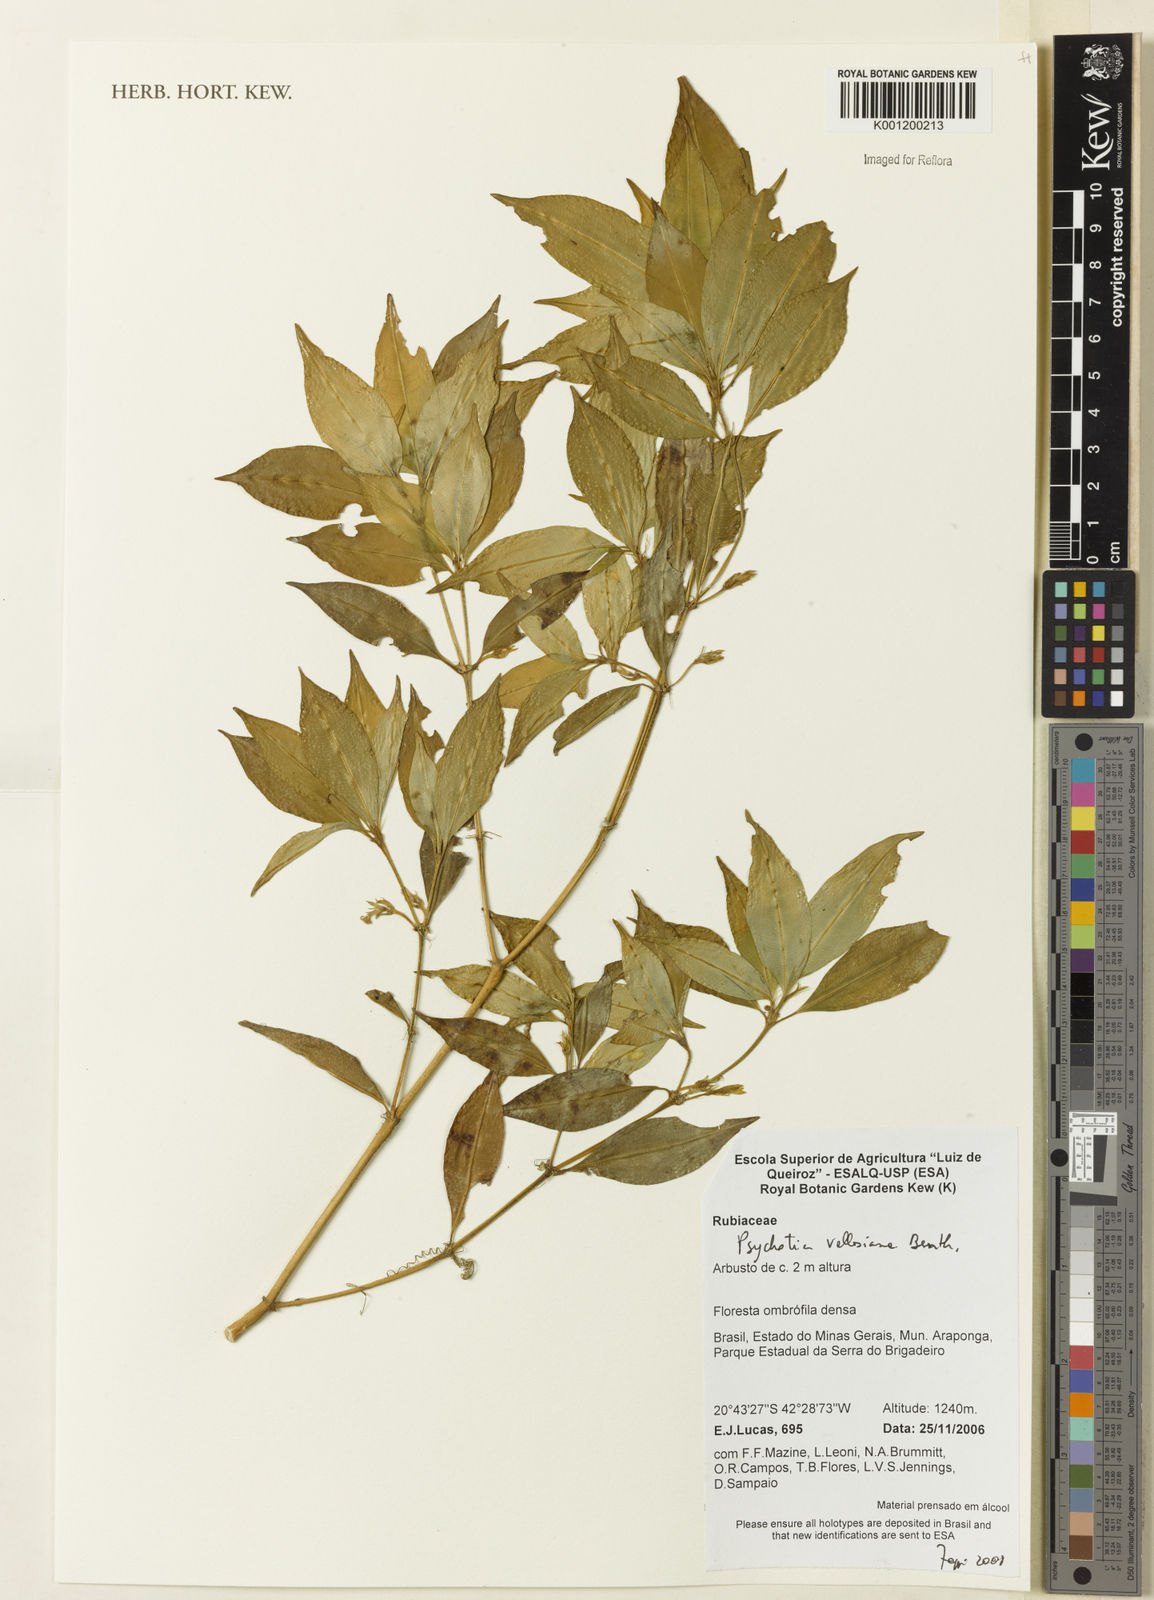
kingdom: Plantae
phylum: Tracheophyta
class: Magnoliopsida
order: Gentianales
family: Rubiaceae
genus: Palicourea
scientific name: Palicourea sessilis
